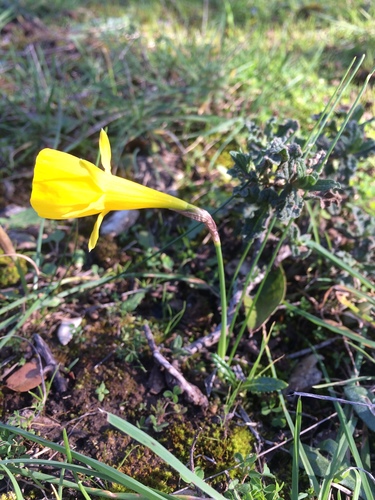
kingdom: Plantae
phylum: Tracheophyta
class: Liliopsida
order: Asparagales
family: Amaryllidaceae
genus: Narcissus
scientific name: Narcissus bulbocodium
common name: Hoop-petticoat daffodil
